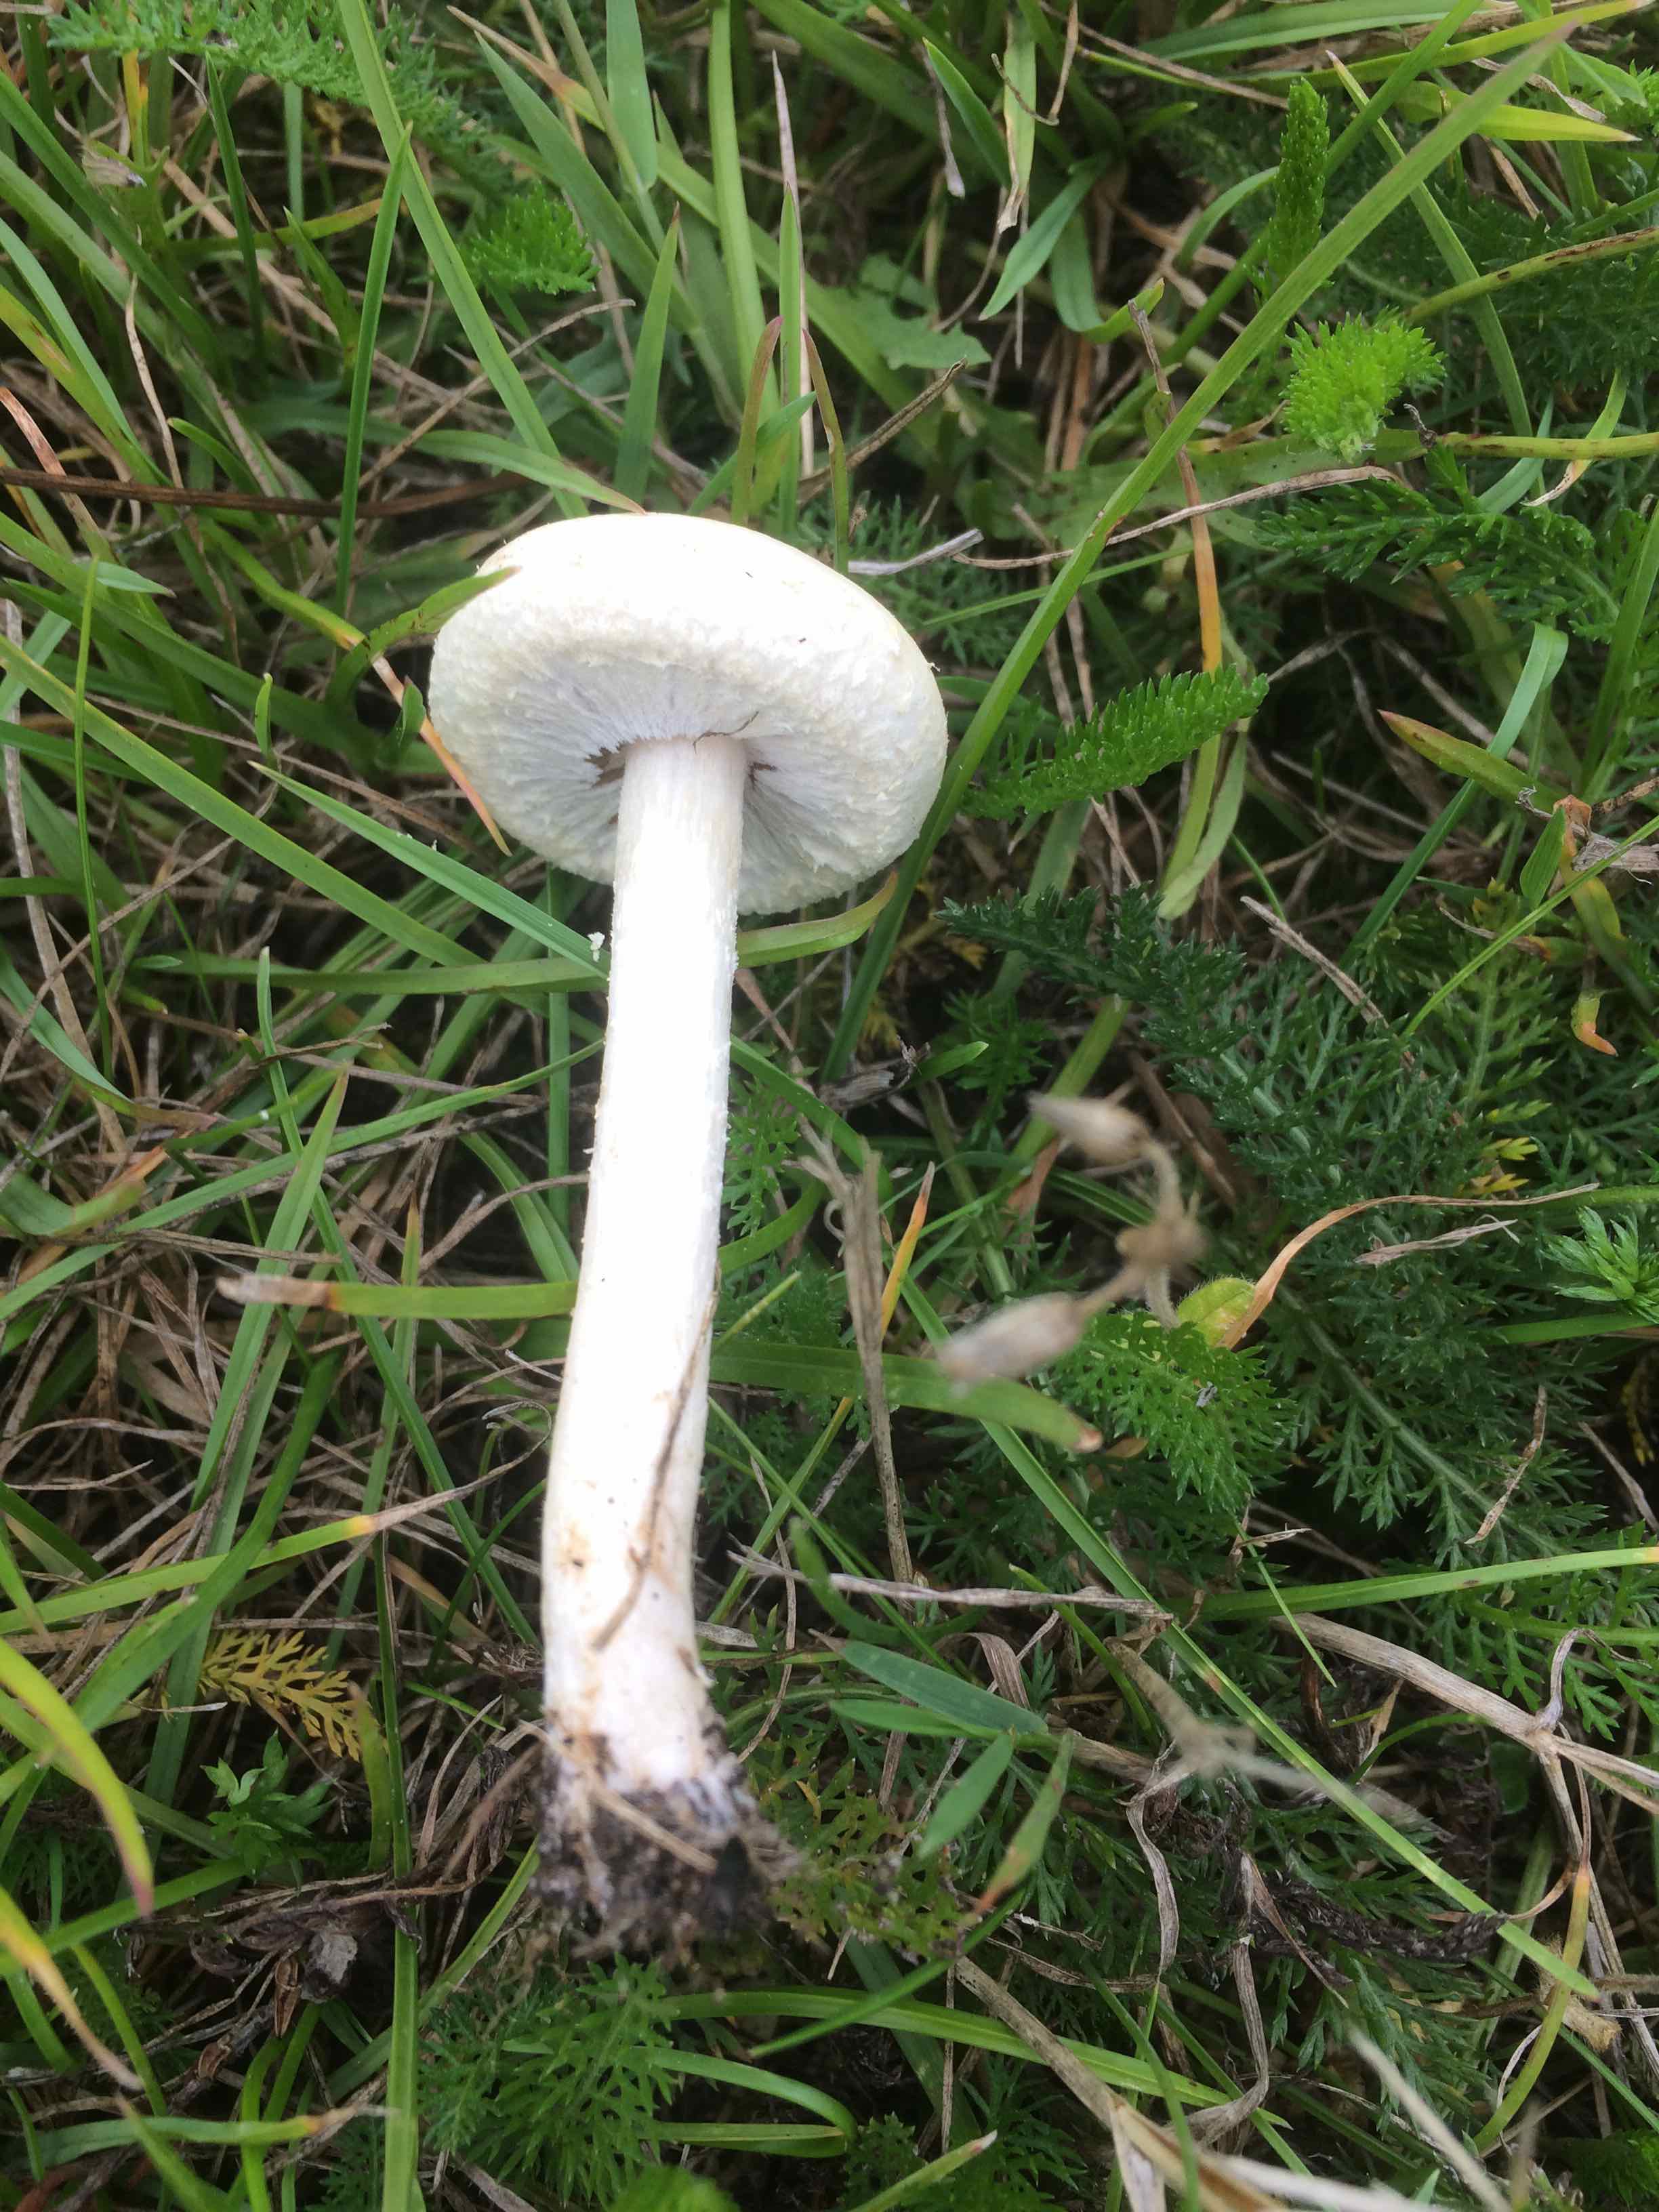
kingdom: Fungi
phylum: Basidiomycota
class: Agaricomycetes
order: Agaricales
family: Strophariaceae
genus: Agrocybe
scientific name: Agrocybe dura
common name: fastkødet agerhat
